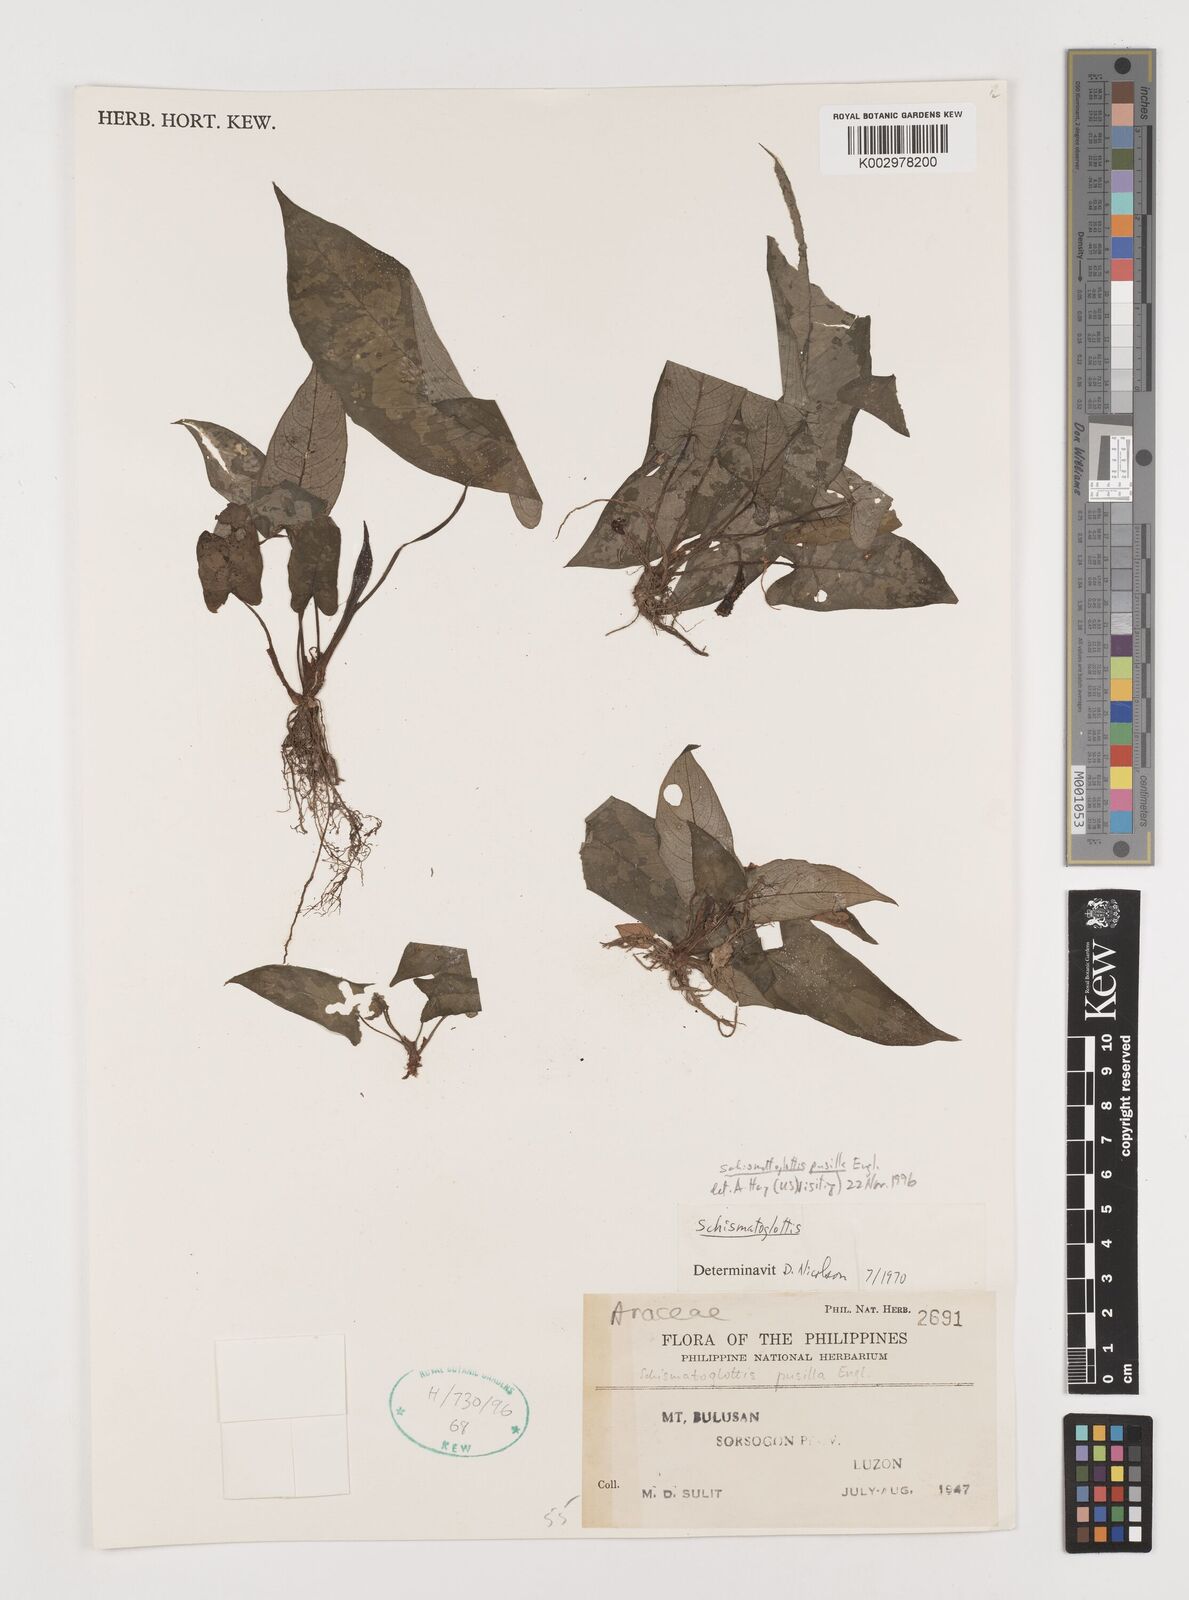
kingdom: Plantae
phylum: Tracheophyta
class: Liliopsida
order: Alismatales
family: Araceae
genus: Schismatoglottis
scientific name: Schismatoglottis pusilla
